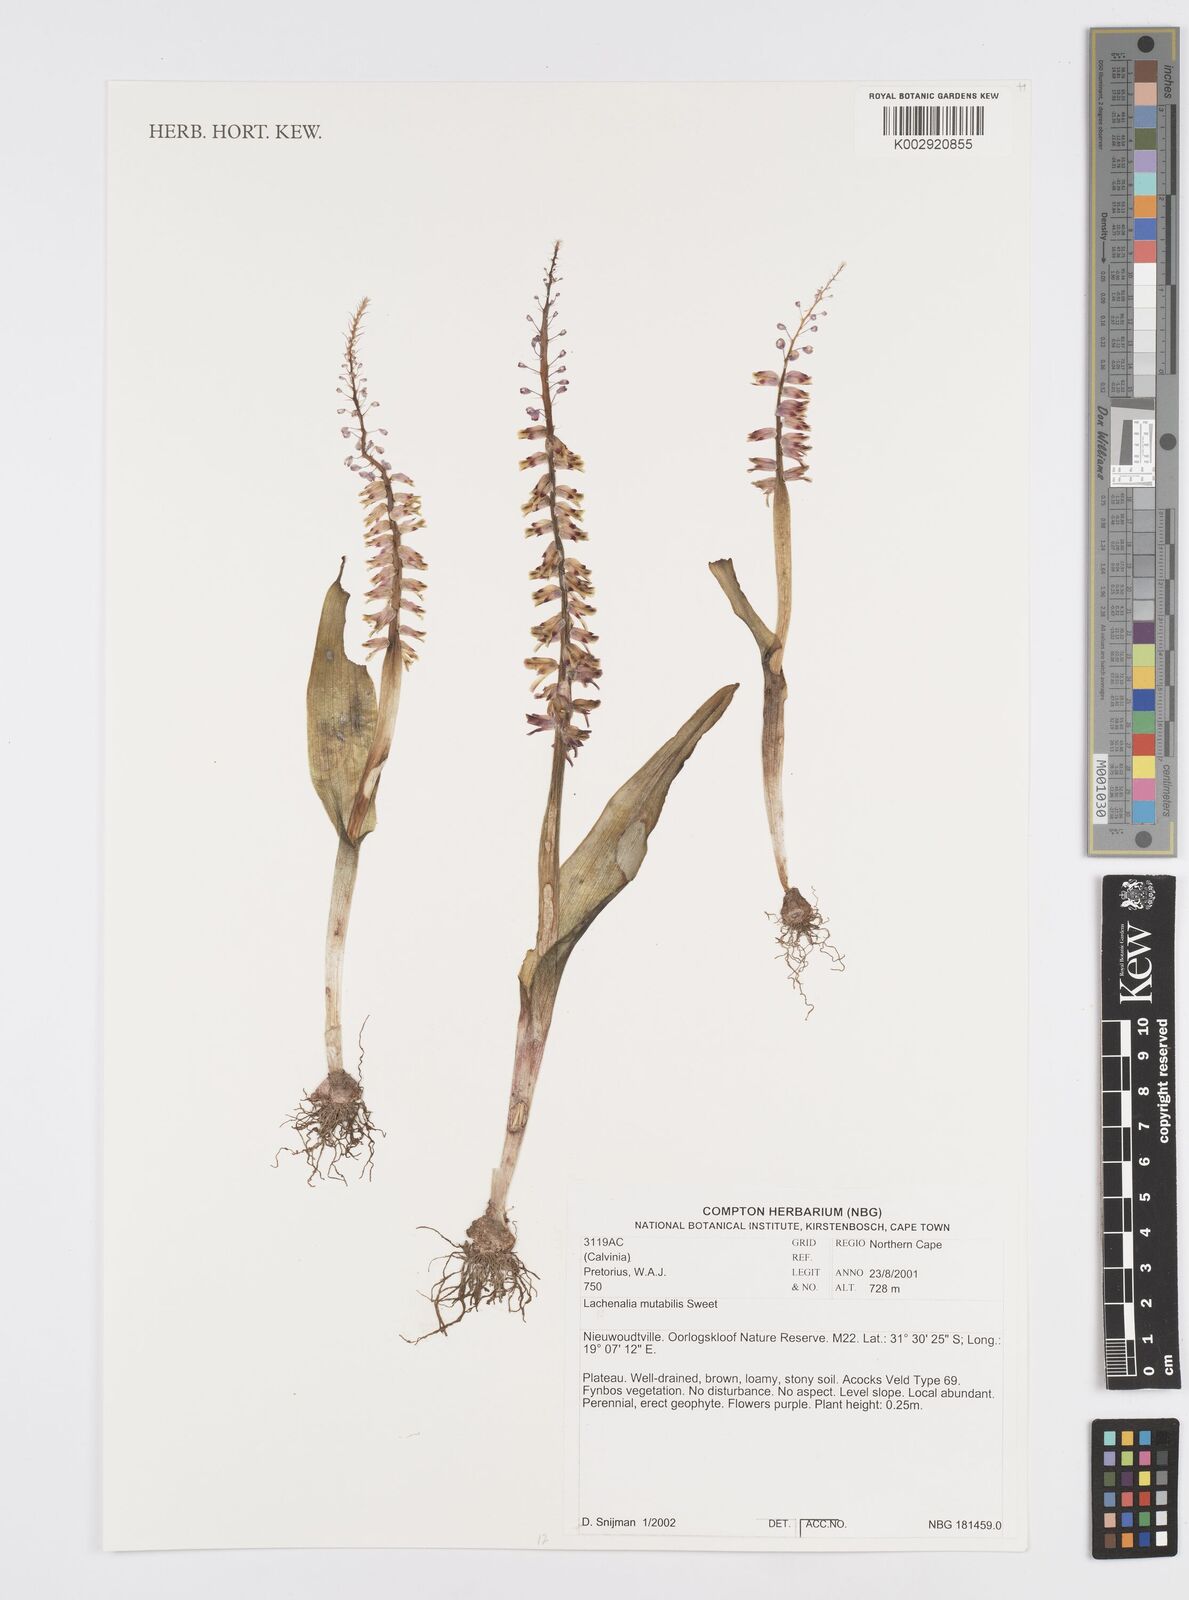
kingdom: Plantae
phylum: Tracheophyta
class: Liliopsida
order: Asparagales
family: Asparagaceae
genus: Lachenalia
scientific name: Lachenalia mutabilis
